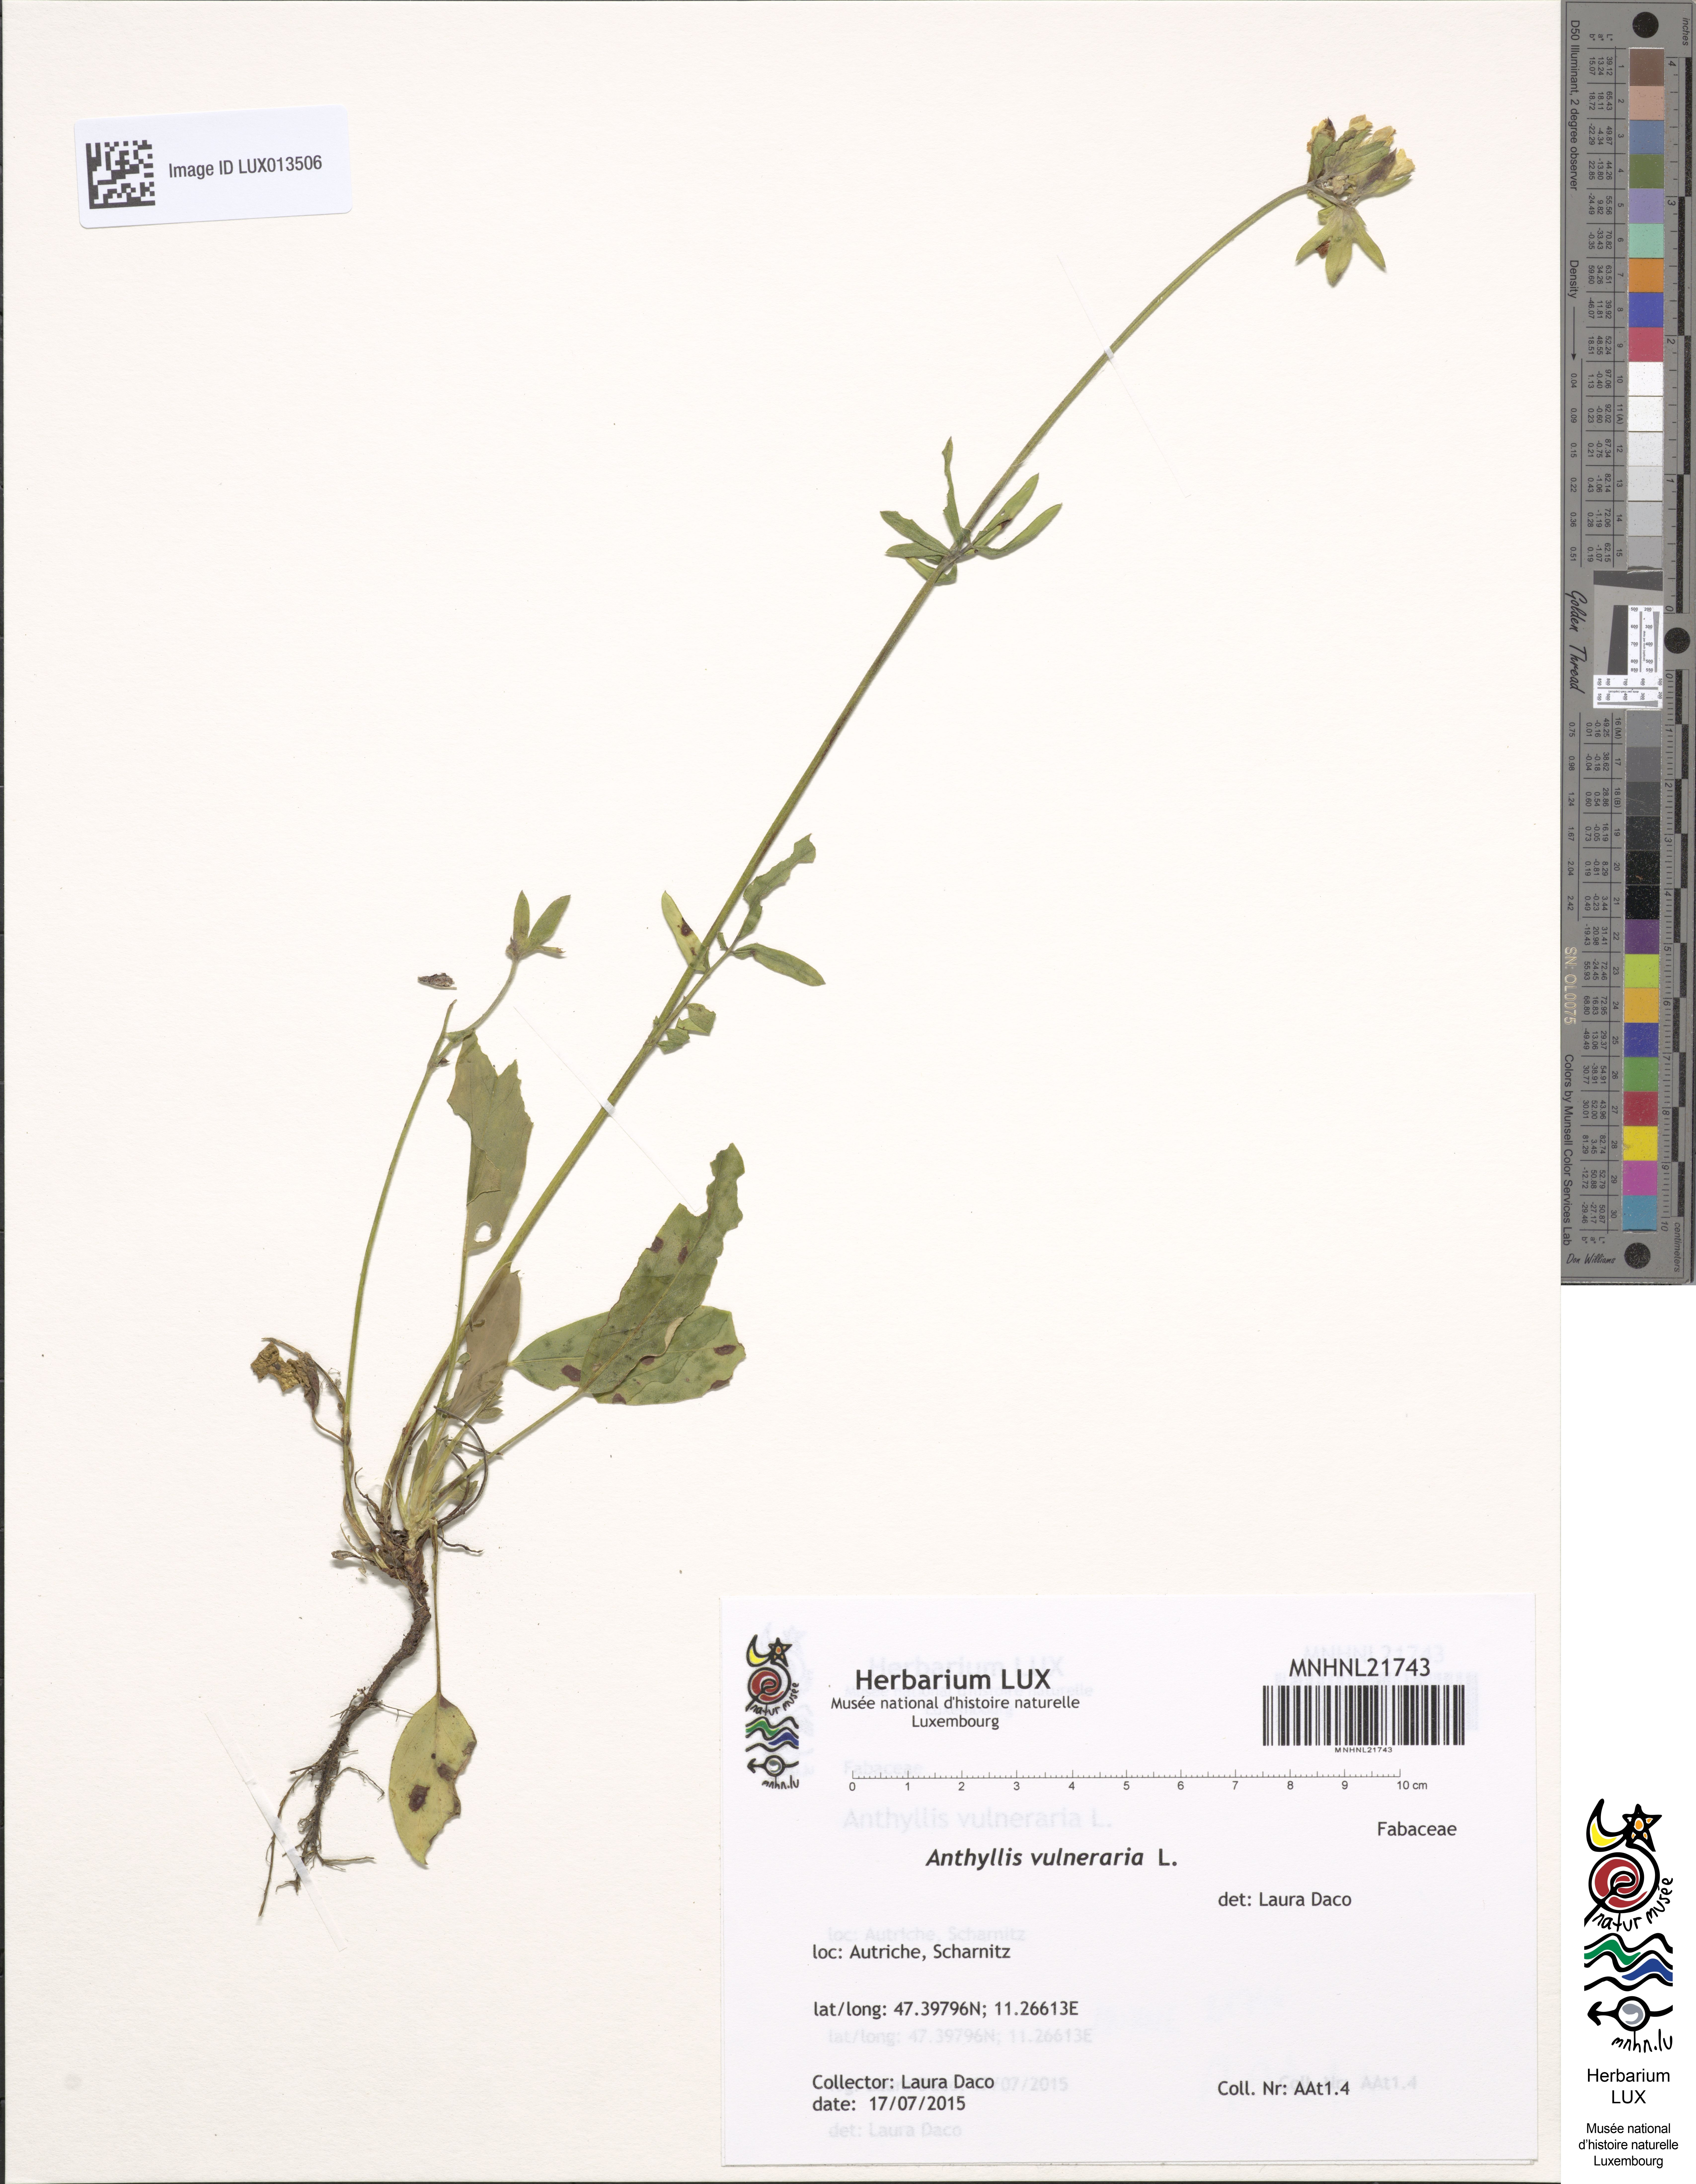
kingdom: Plantae
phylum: Tracheophyta
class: Magnoliopsida
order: Fabales
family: Fabaceae
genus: Anthyllis
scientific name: Anthyllis vulneraria
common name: Kidney vetch
